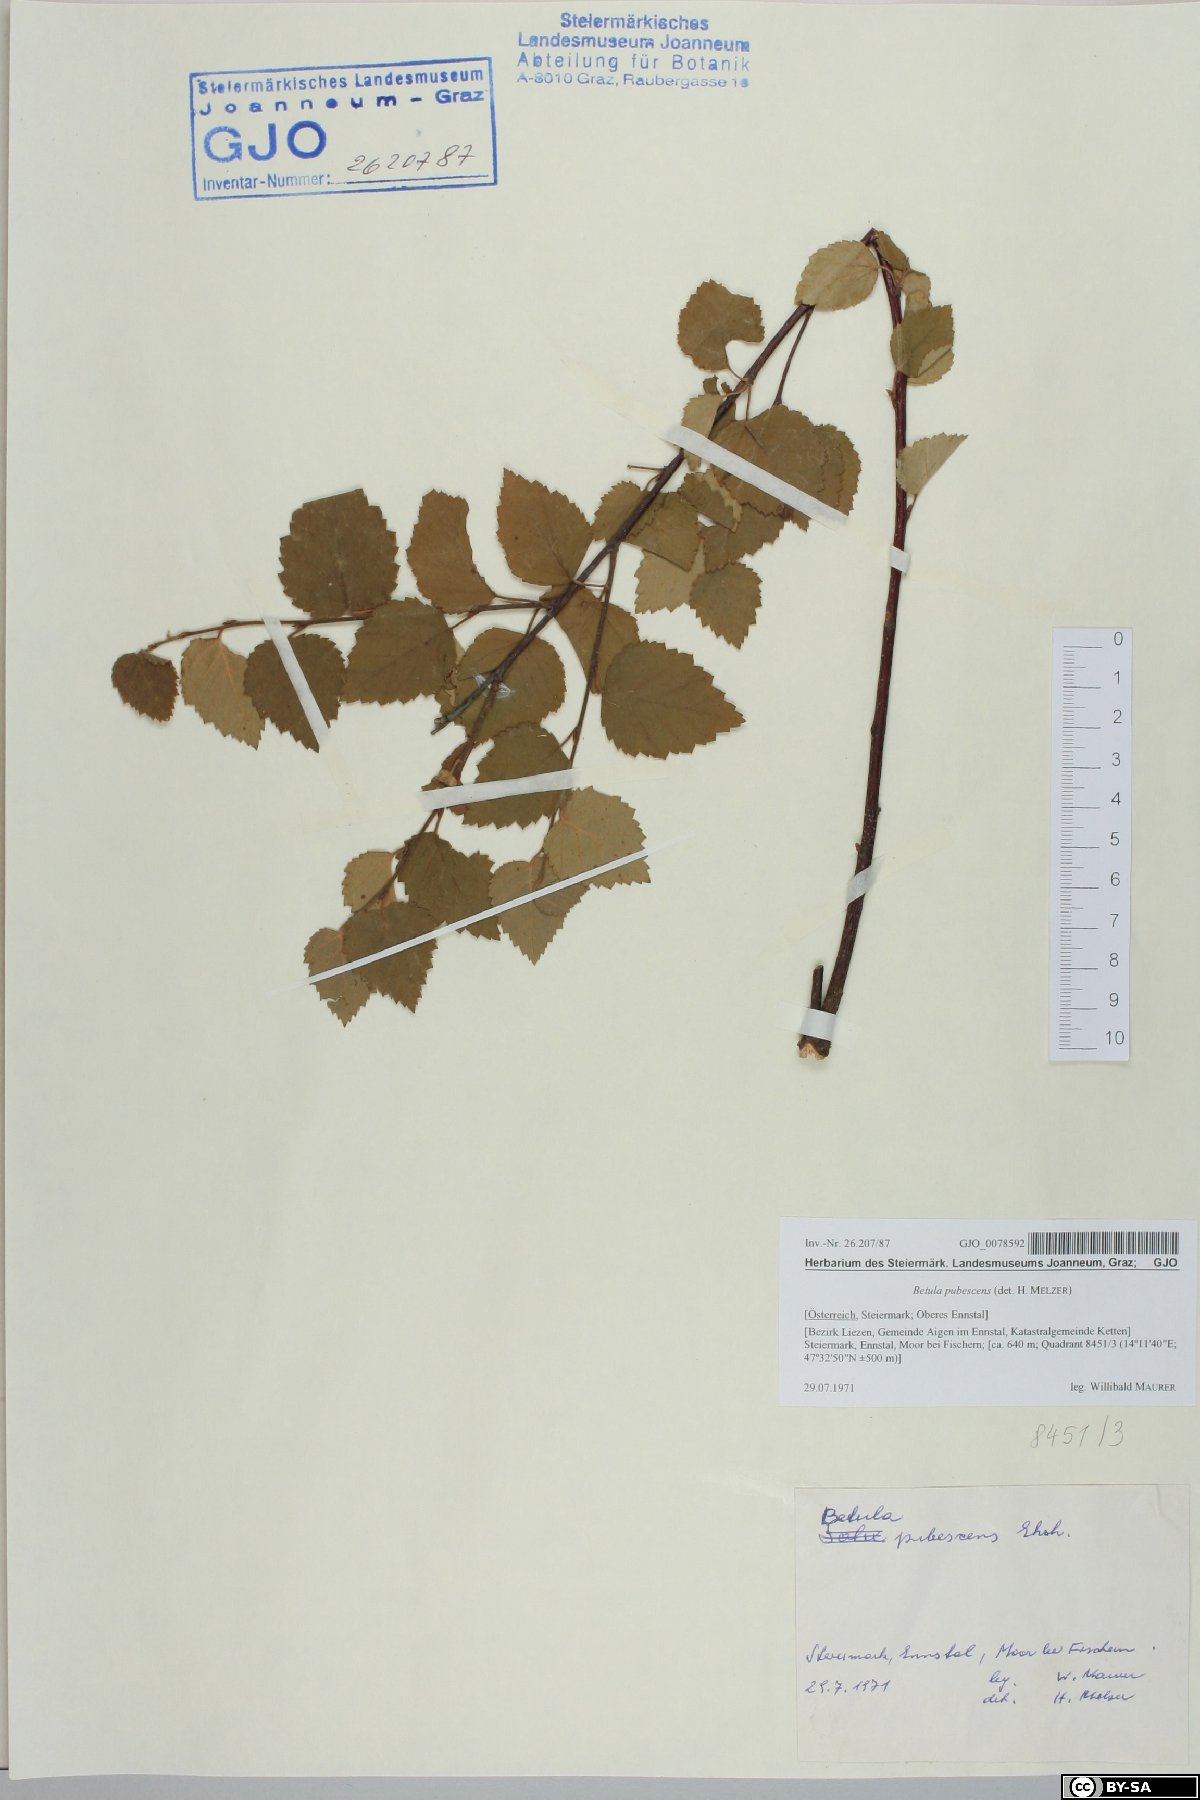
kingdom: Plantae
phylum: Tracheophyta
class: Magnoliopsida
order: Fagales
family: Betulaceae
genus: Betula
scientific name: Betula pubescens
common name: Downy birch
